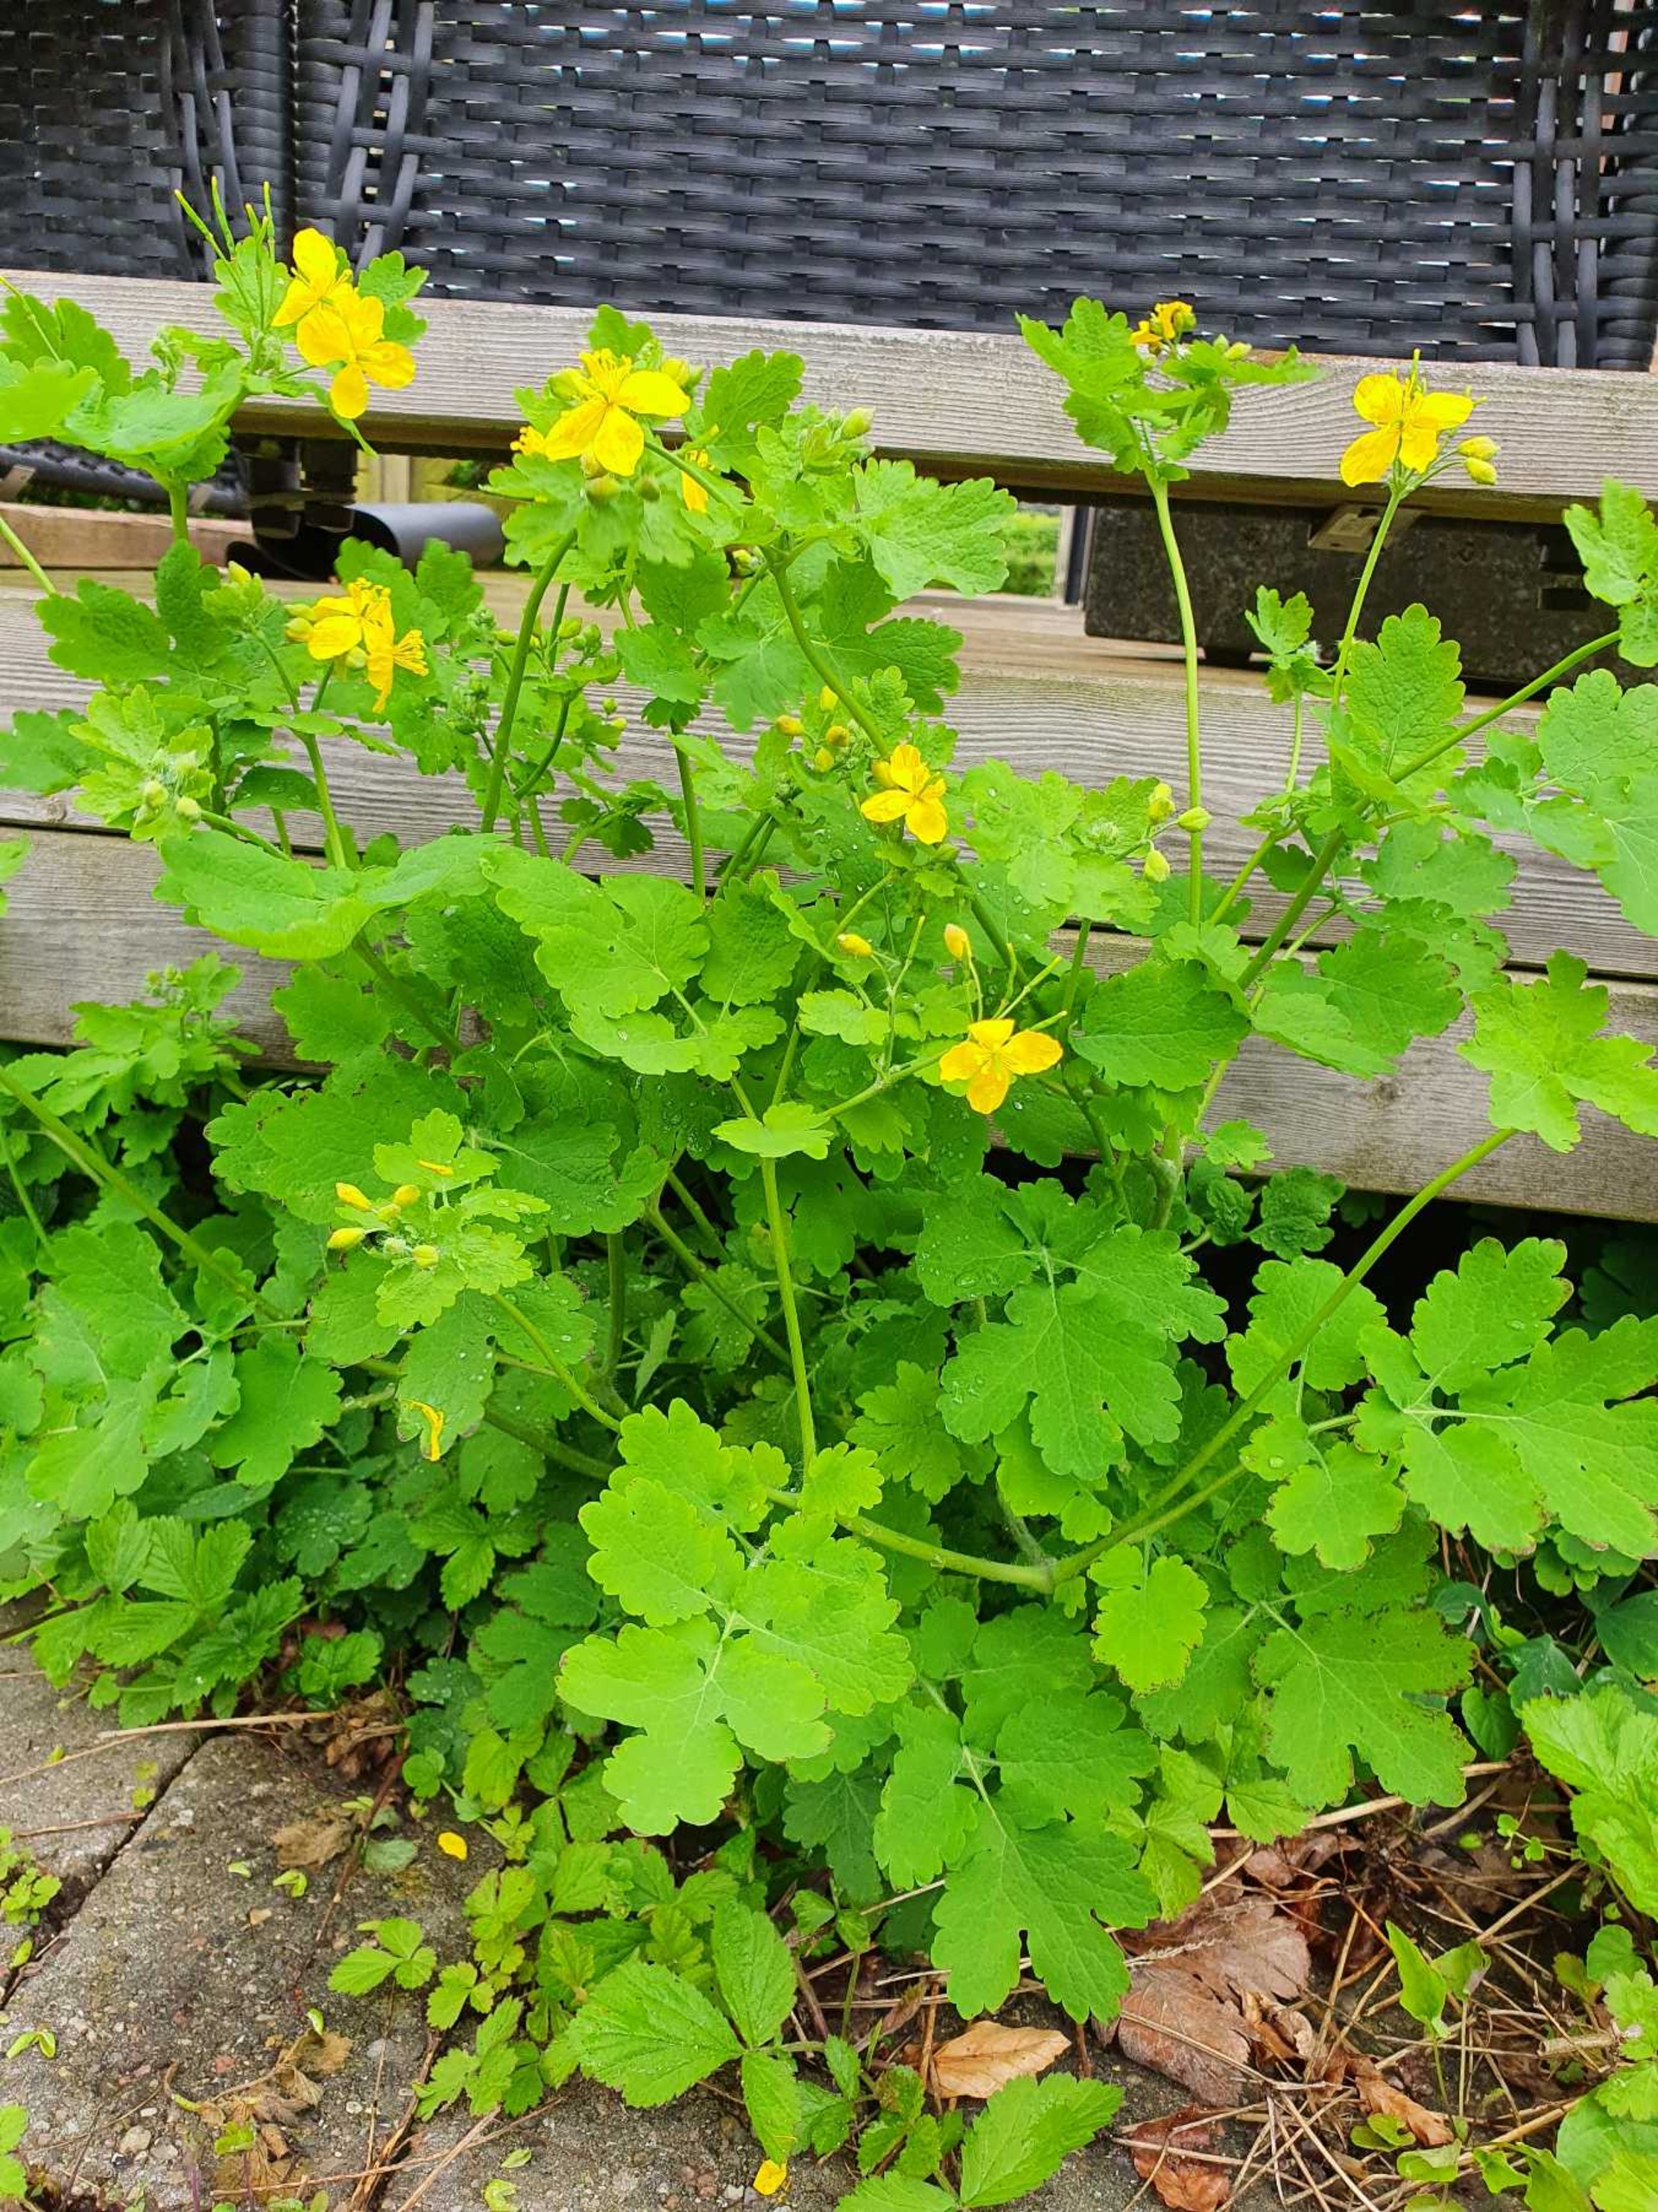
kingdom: Plantae
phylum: Tracheophyta
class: Magnoliopsida
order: Ranunculales
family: Papaveraceae
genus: Chelidonium
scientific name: Chelidonium majus
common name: Svaleurt
